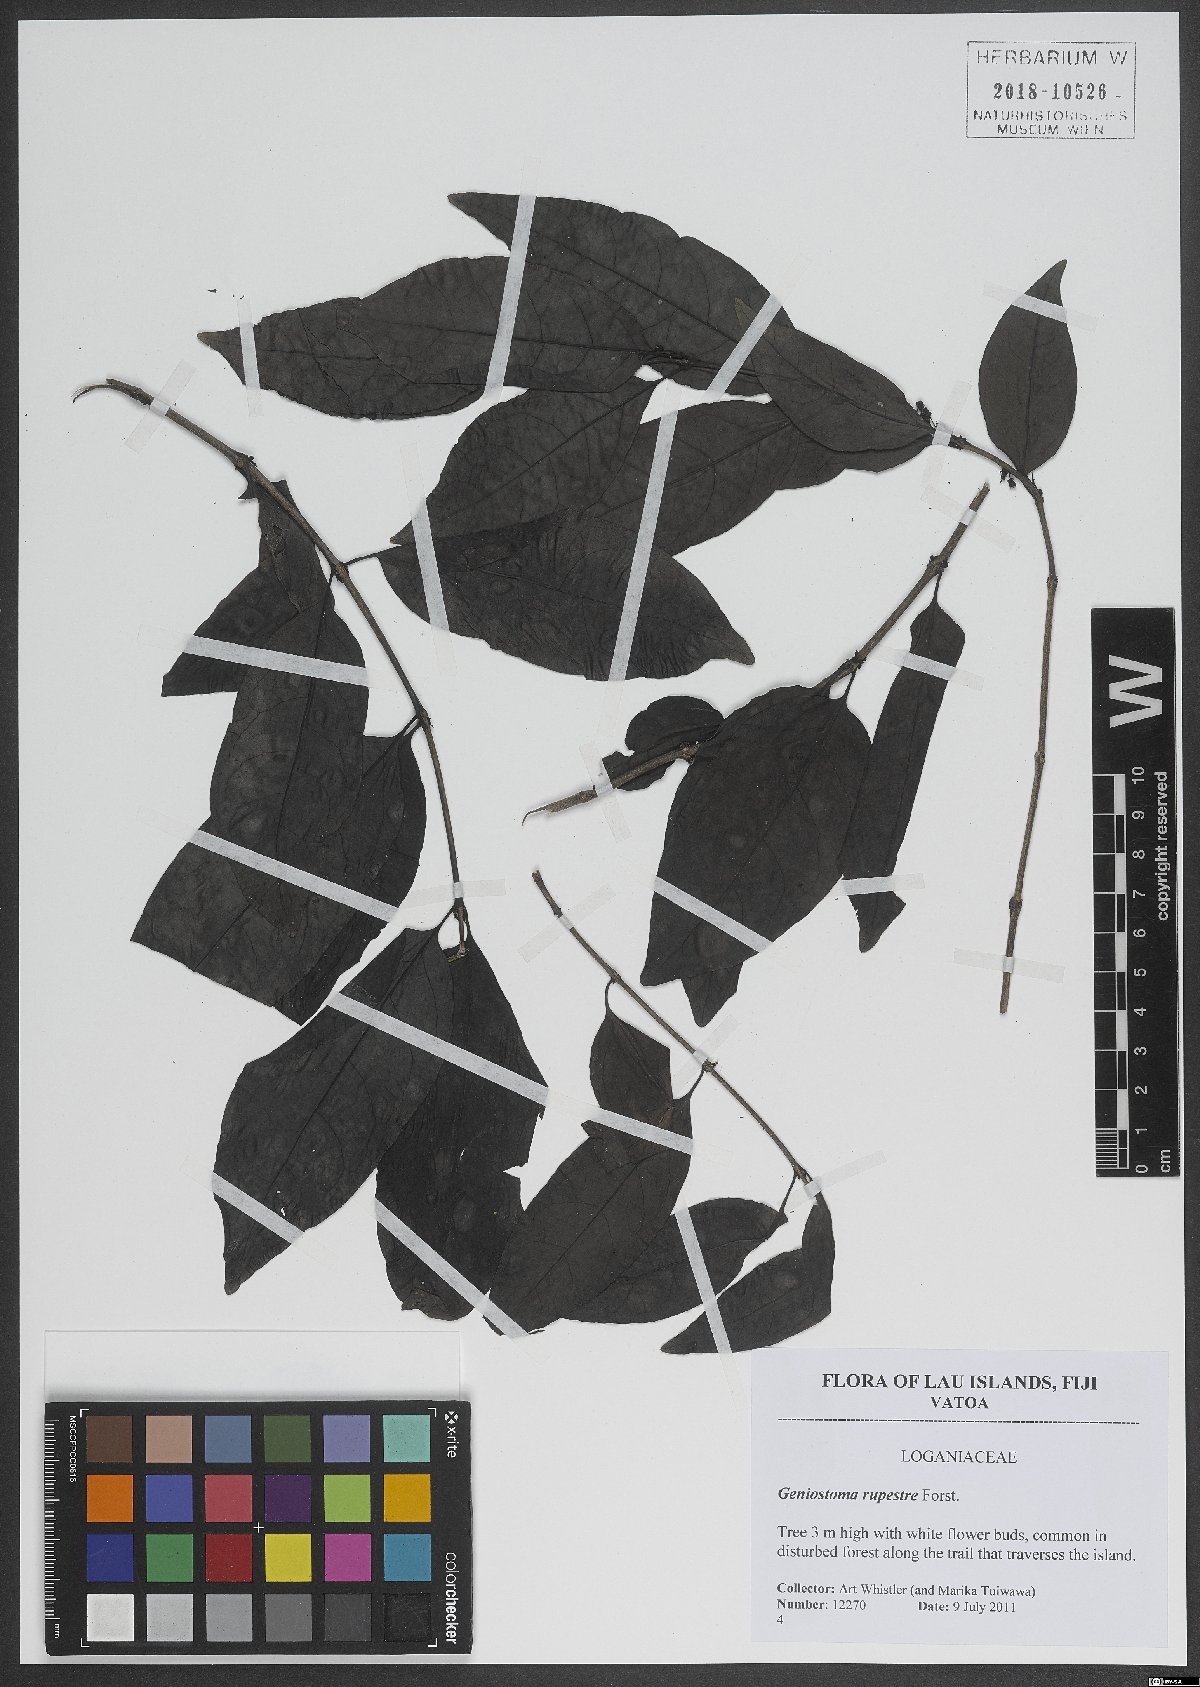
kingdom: Plantae
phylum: Tracheophyta
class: Magnoliopsida
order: Gentianales
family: Loganiaceae
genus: Geniostoma
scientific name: Geniostoma rupestre
